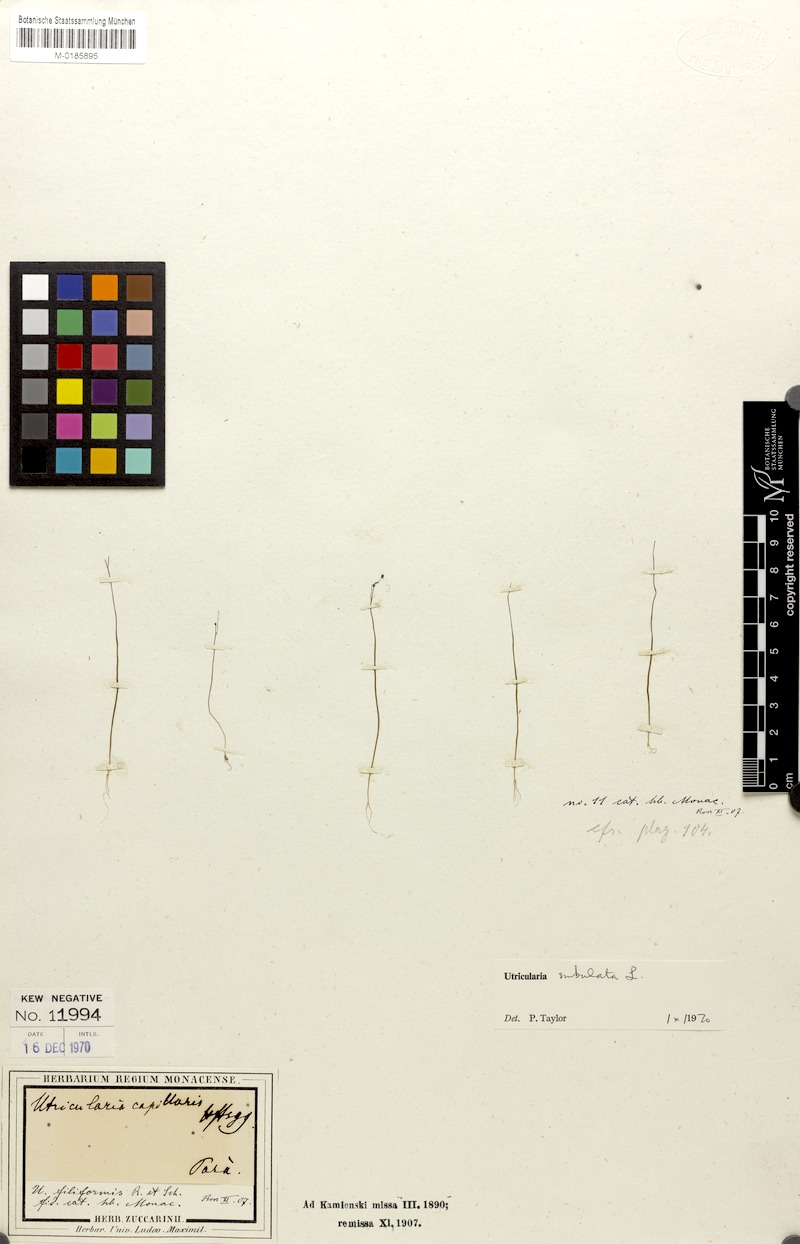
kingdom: Plantae
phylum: Tracheophyta
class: Magnoliopsida
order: Lamiales
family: Lentibulariaceae
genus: Utricularia
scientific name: Utricularia subulata
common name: Tiny bladderwort
